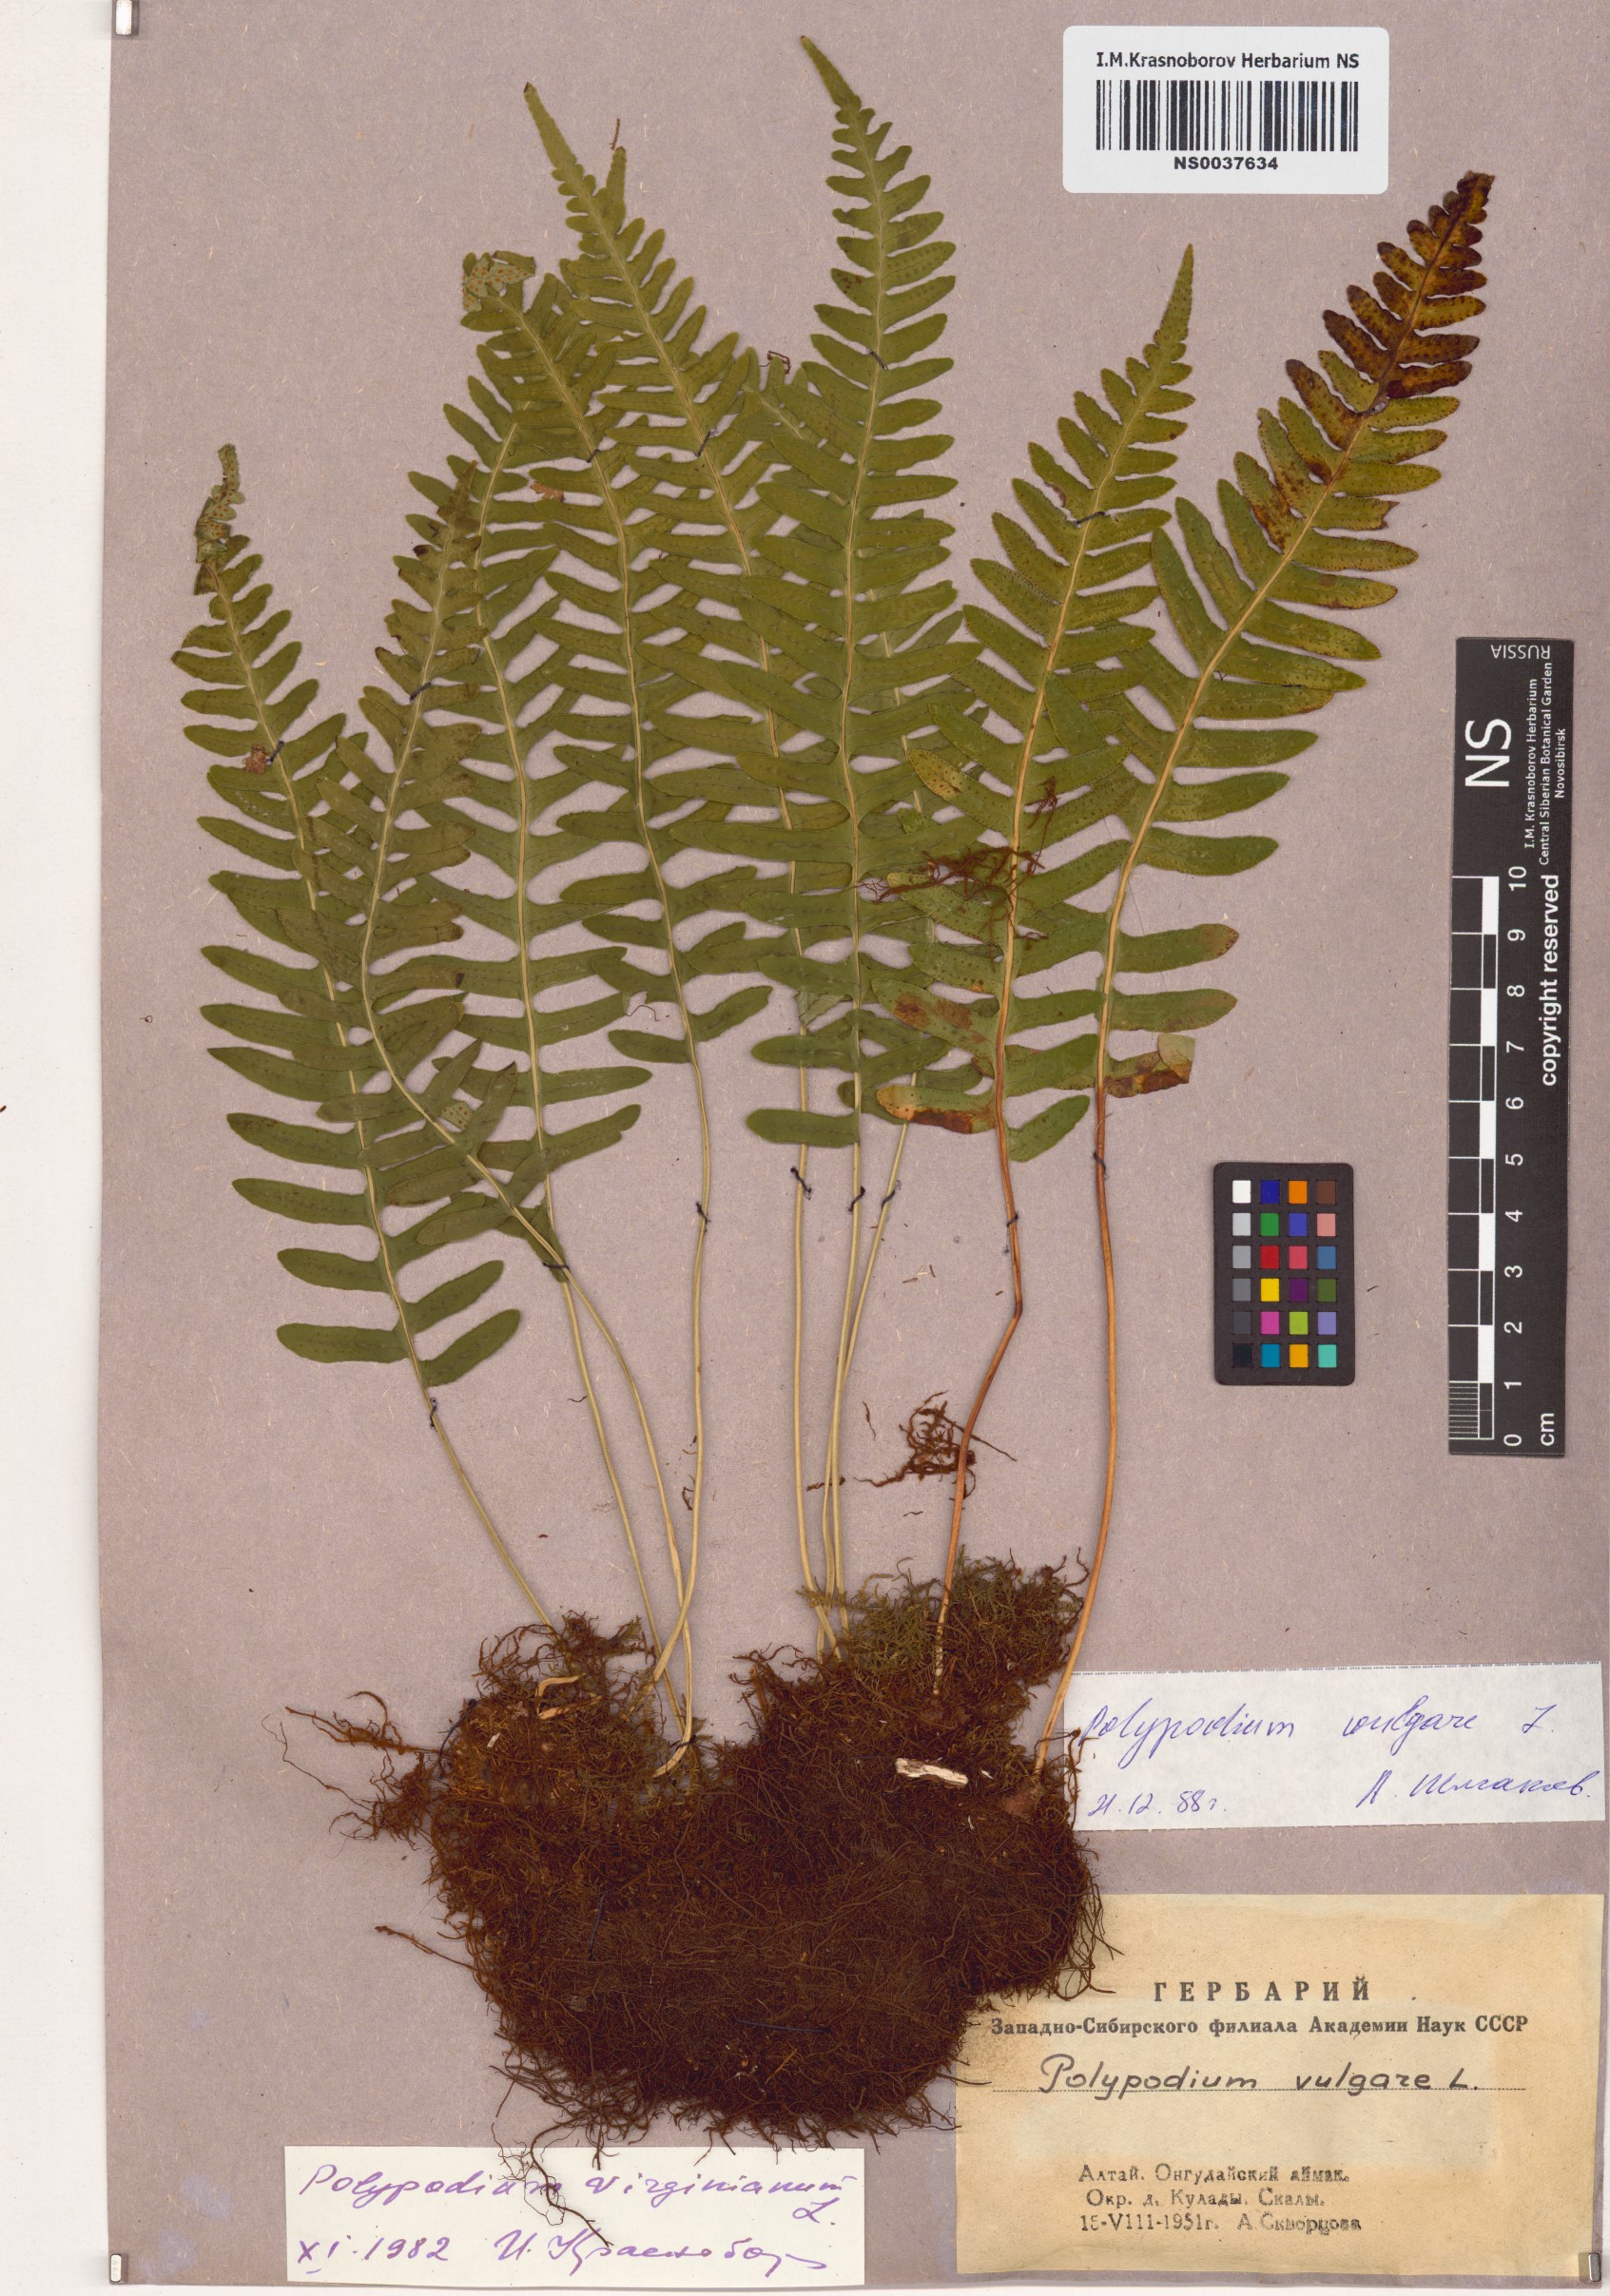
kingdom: Plantae
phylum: Tracheophyta
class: Polypodiopsida
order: Polypodiales
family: Polypodiaceae
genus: Polypodium
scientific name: Polypodium vulgare
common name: Common polypody
